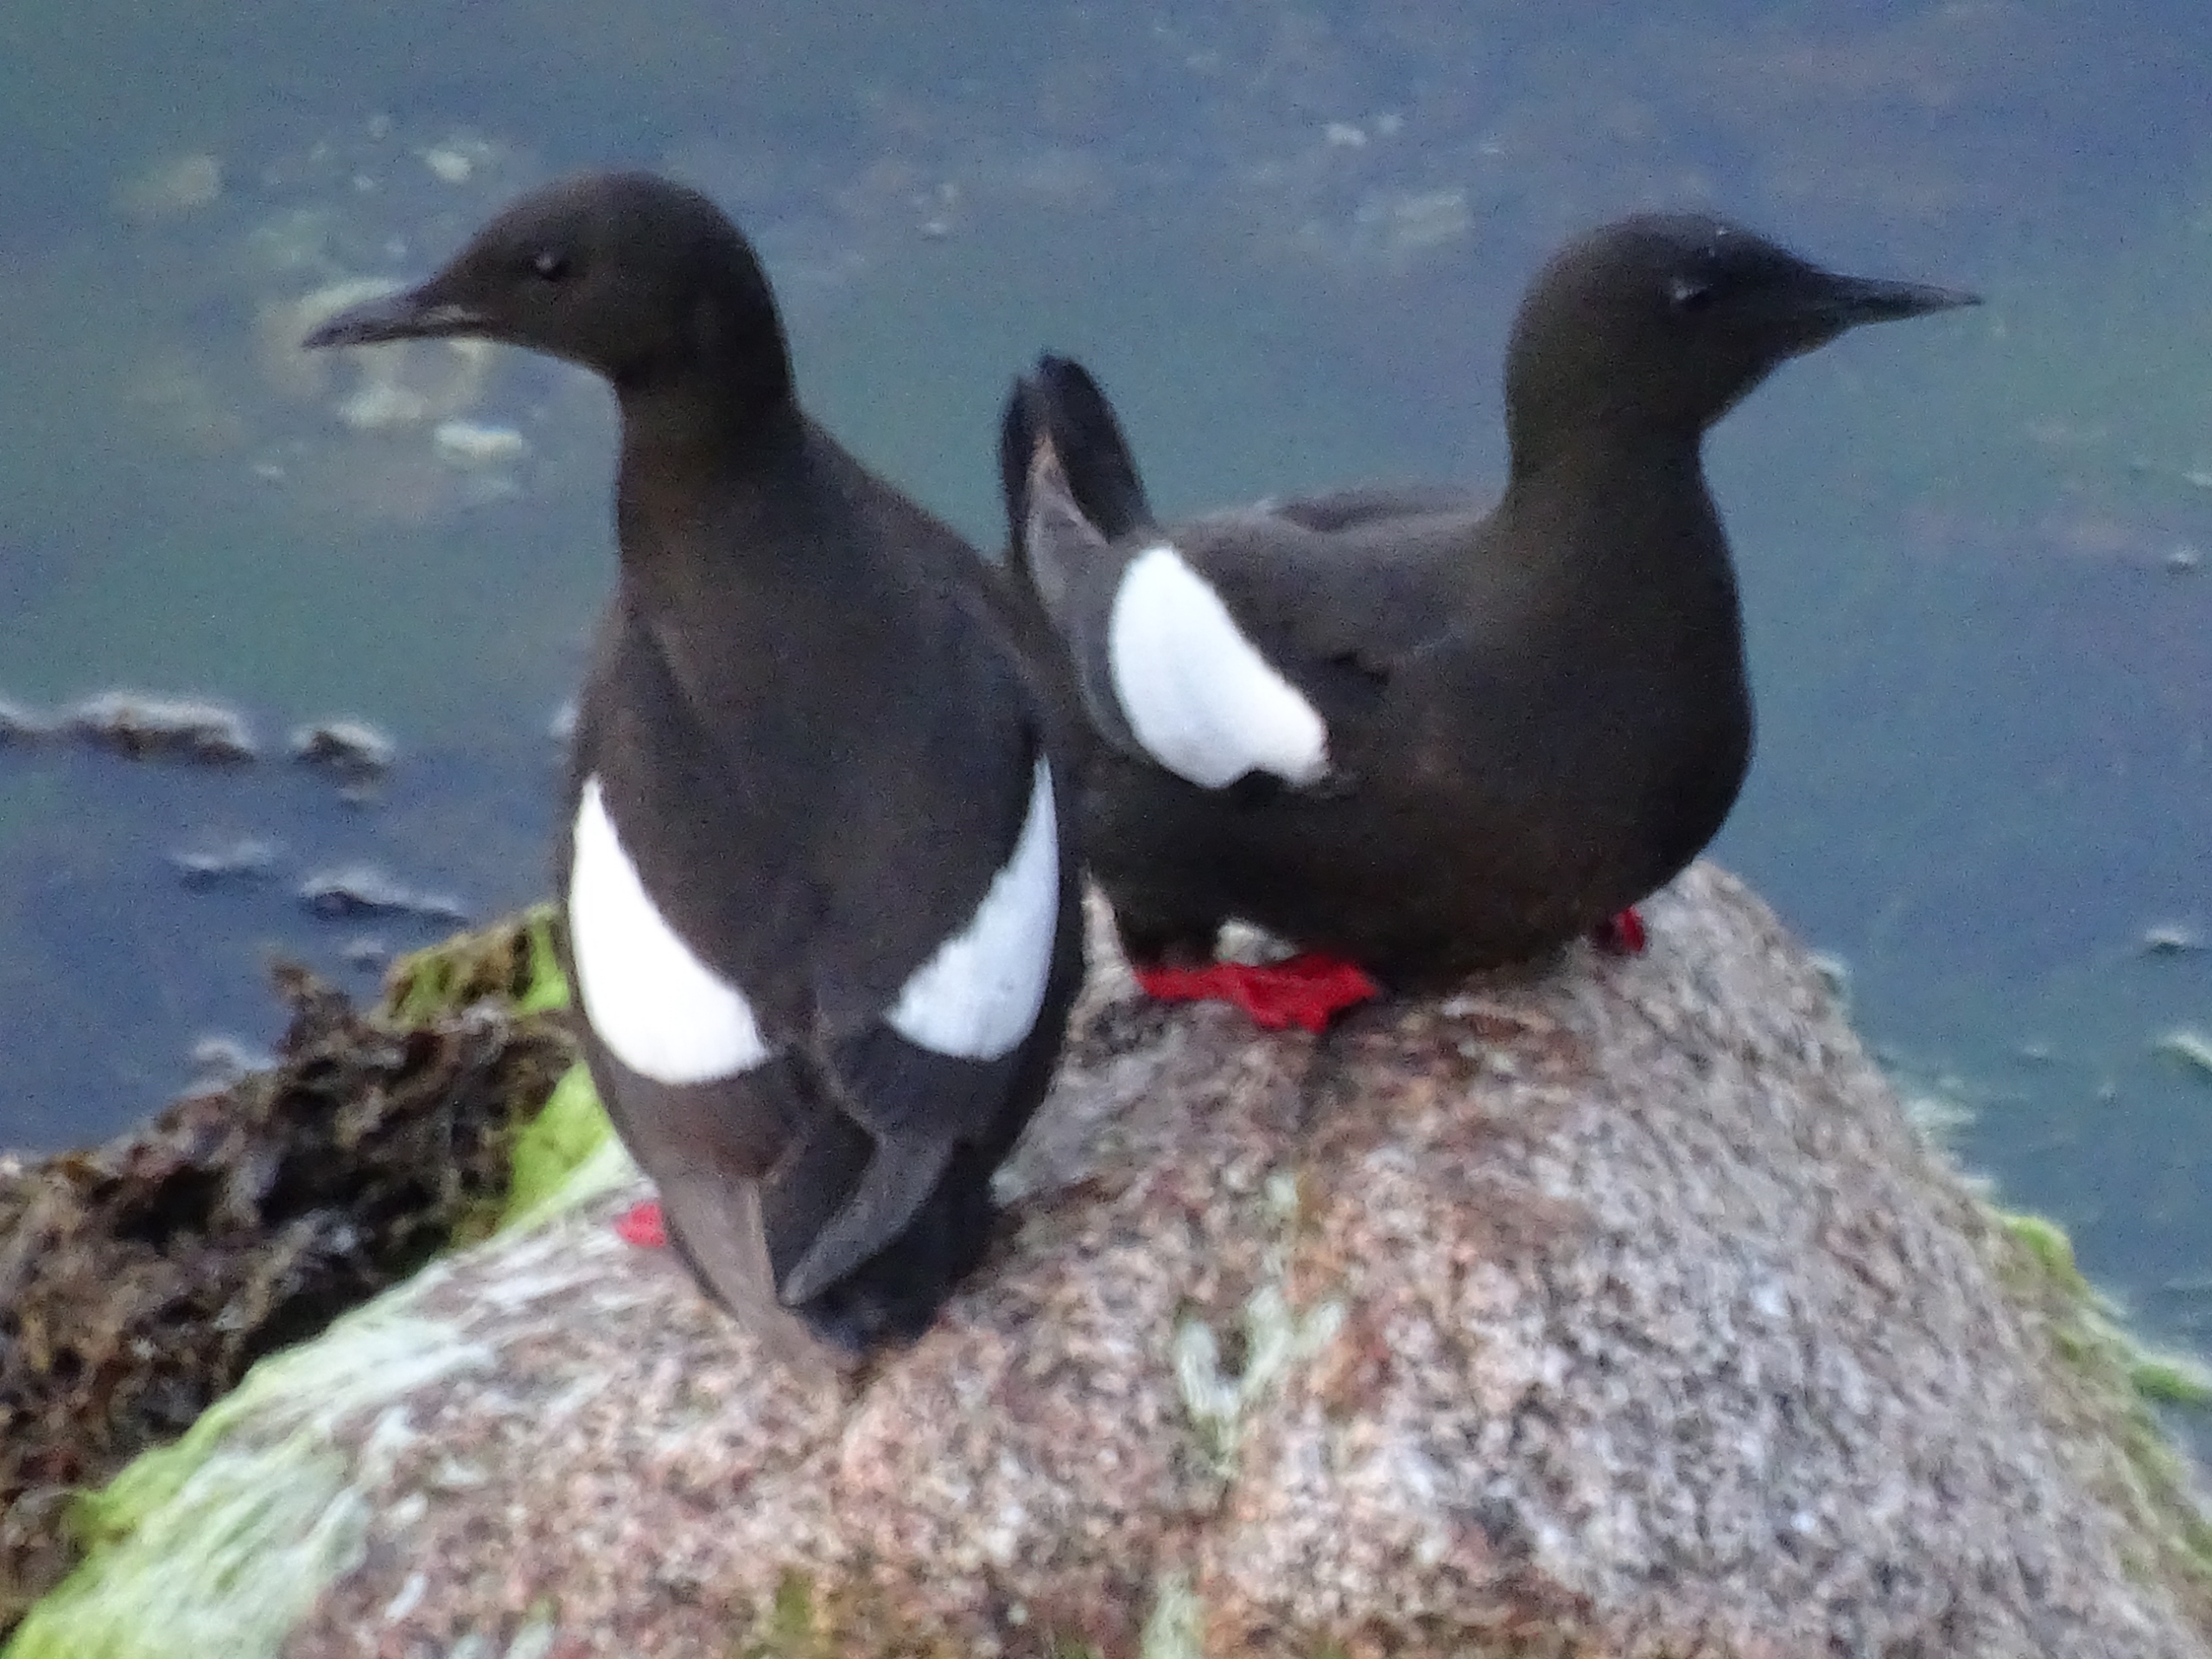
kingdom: Animalia
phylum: Chordata
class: Aves
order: Charadriiformes
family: Alcidae
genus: Cepphus
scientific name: Cepphus grylle
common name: Tejst
